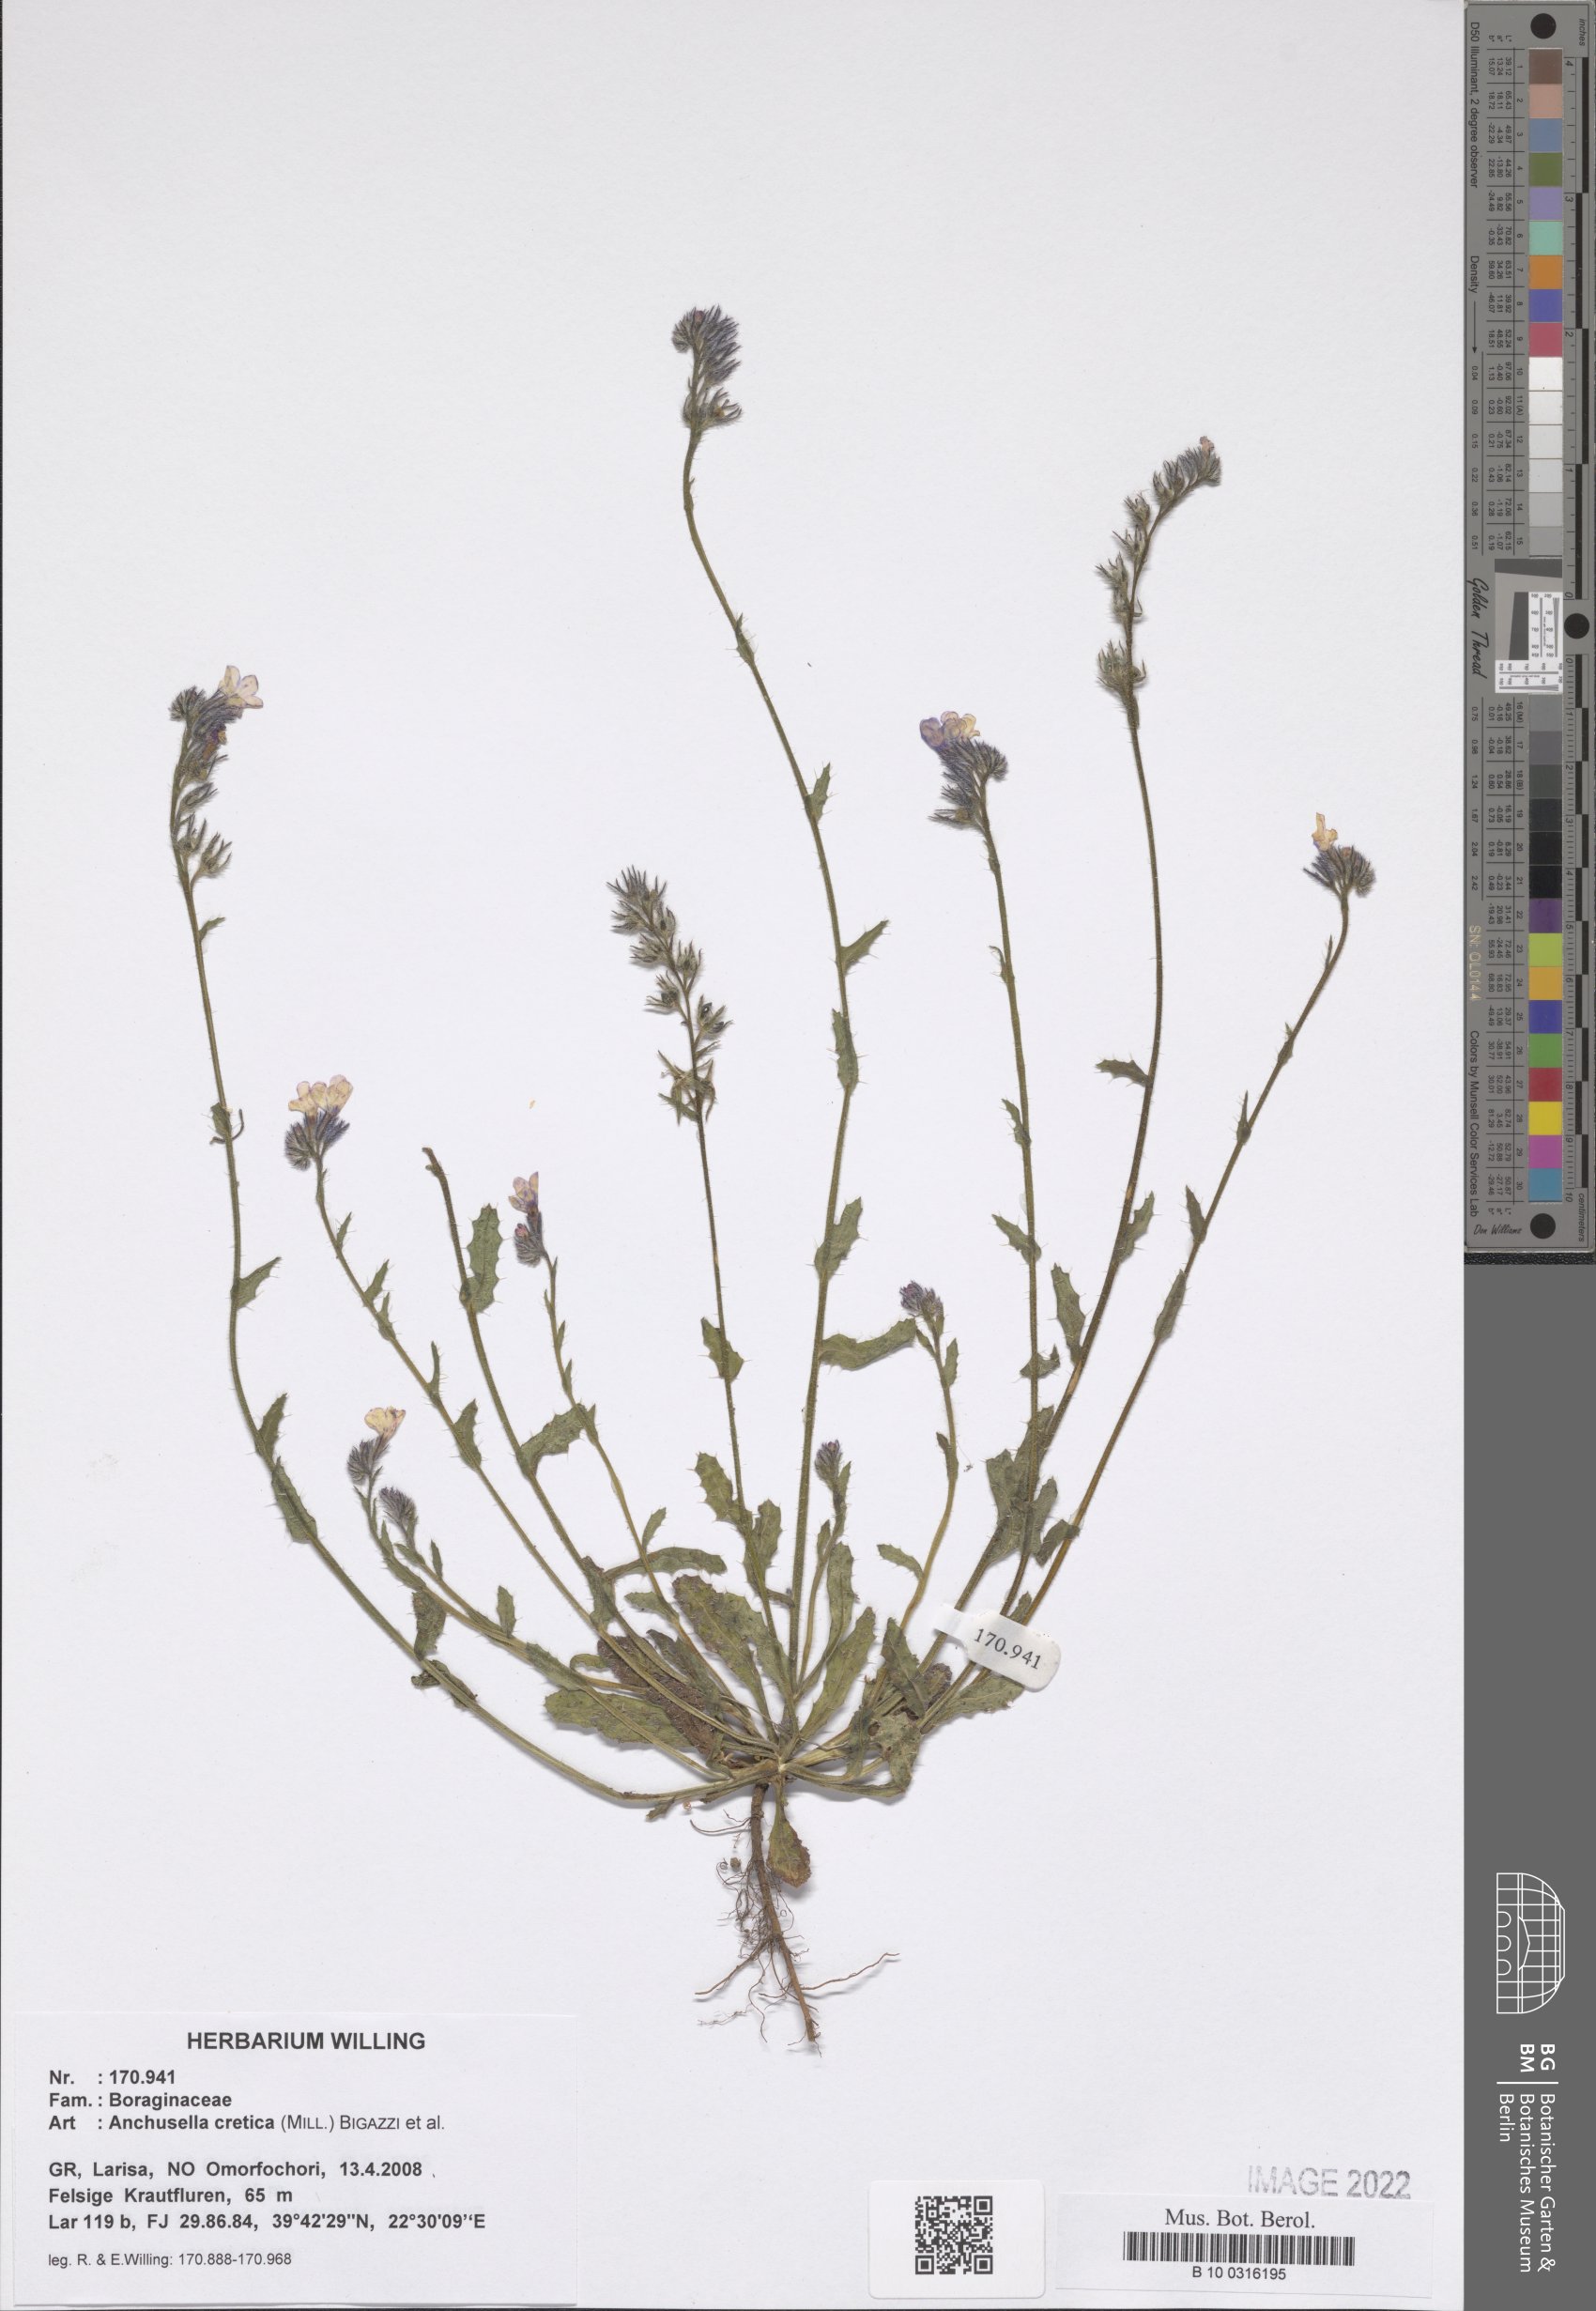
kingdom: Plantae
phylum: Tracheophyta
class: Magnoliopsida
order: Boraginales
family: Boraginaceae
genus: Anchusella
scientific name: Anchusella cretica
